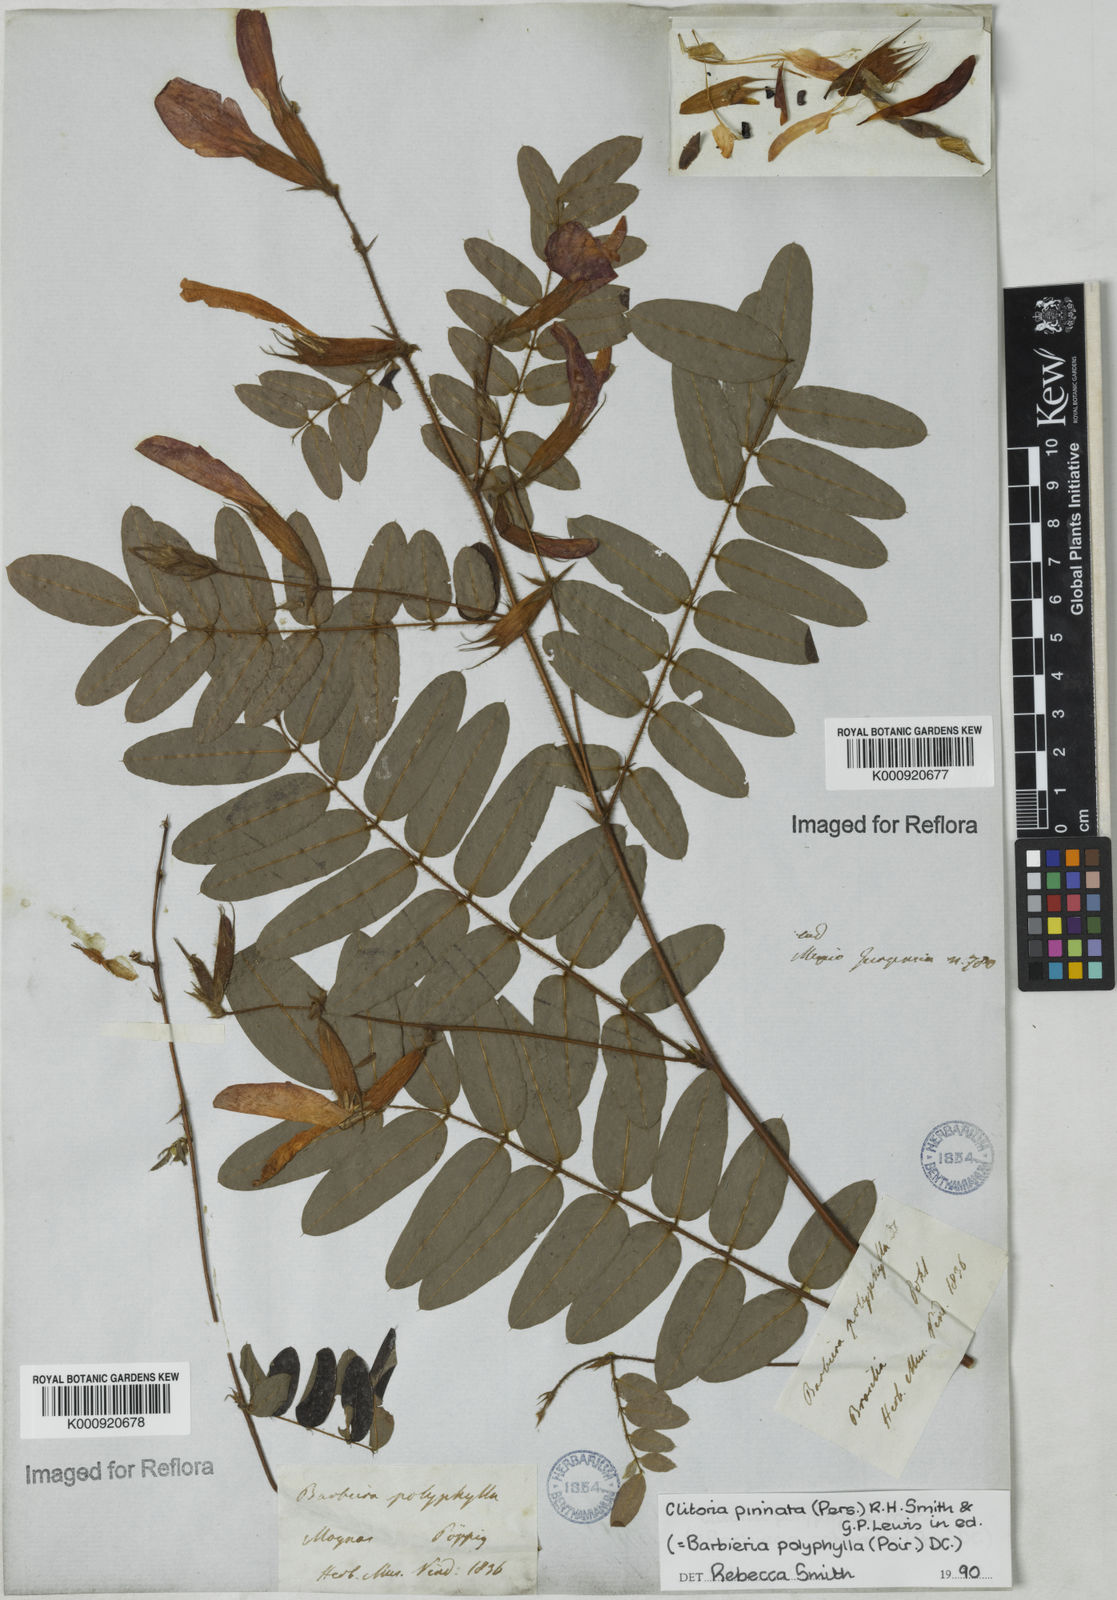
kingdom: Plantae
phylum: Tracheophyta
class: Magnoliopsida
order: Fabales
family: Fabaceae
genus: Barbieria
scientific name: Barbieria pinnata
